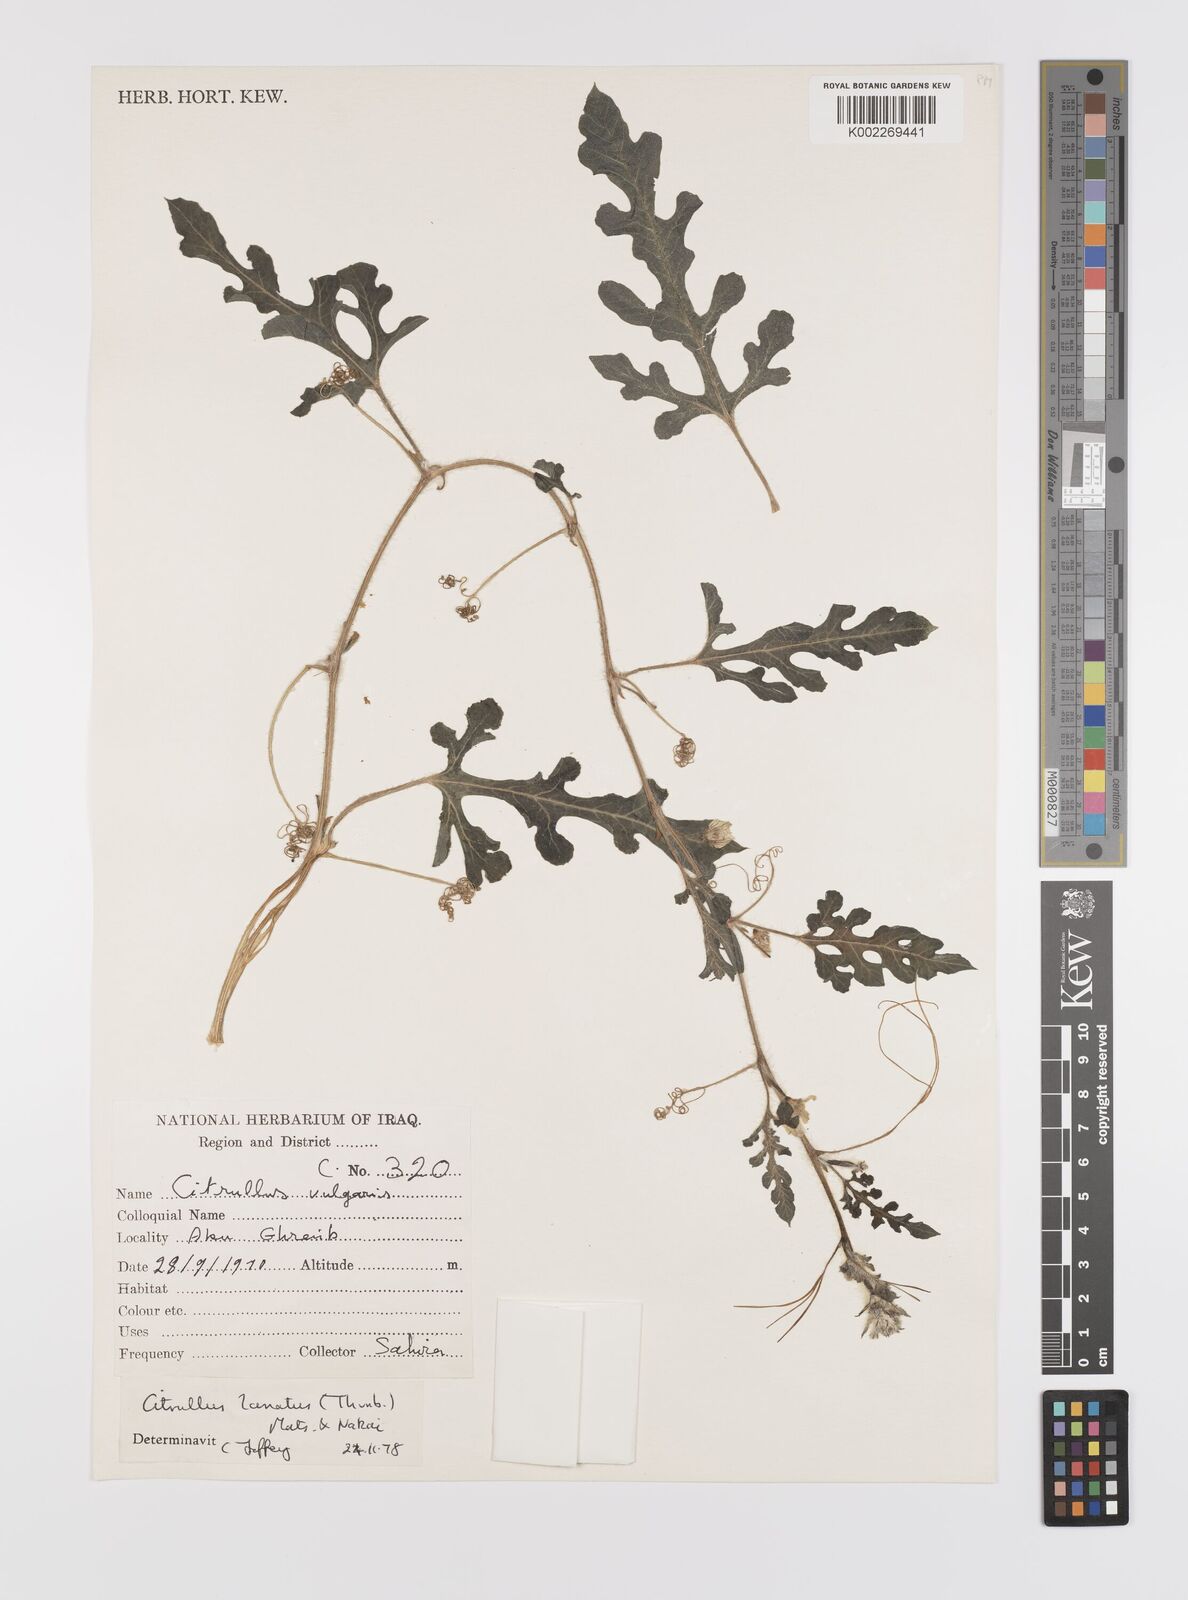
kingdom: Plantae
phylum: Tracheophyta
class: Magnoliopsida
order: Cucurbitales
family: Cucurbitaceae
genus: Citrullus
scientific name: Citrullus lanatus
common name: Watermelon
